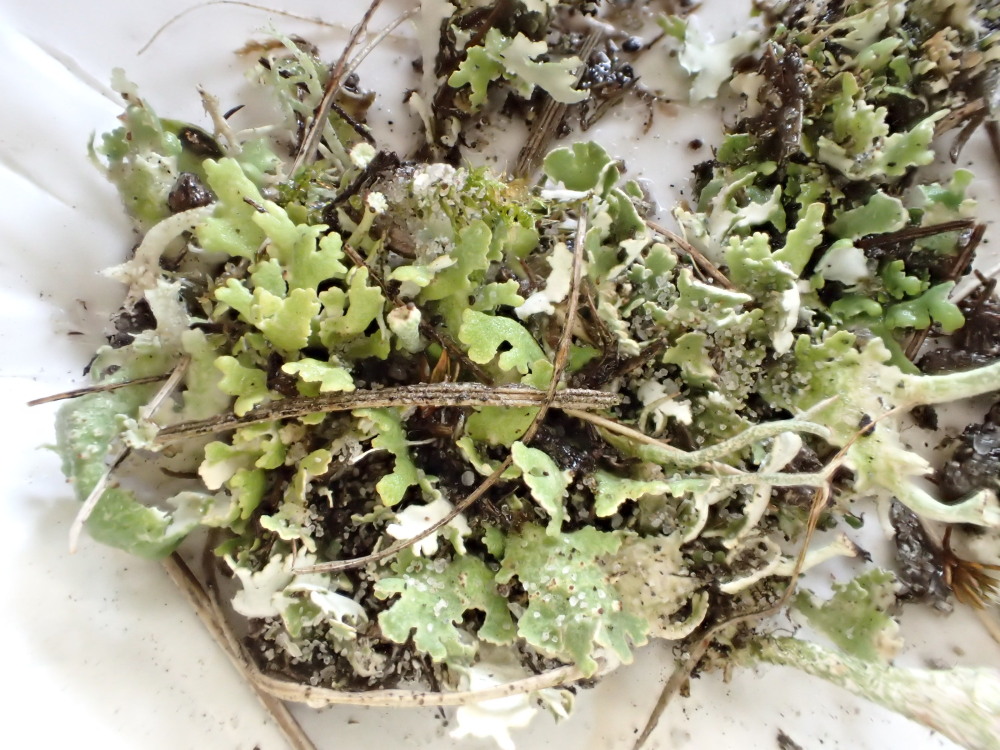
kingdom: Fungi
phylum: Ascomycota
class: Lecanoromycetes
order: Lecanorales
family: Cladoniaceae
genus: Cladonia
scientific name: Cladonia foliacea
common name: fliget bægerlav
